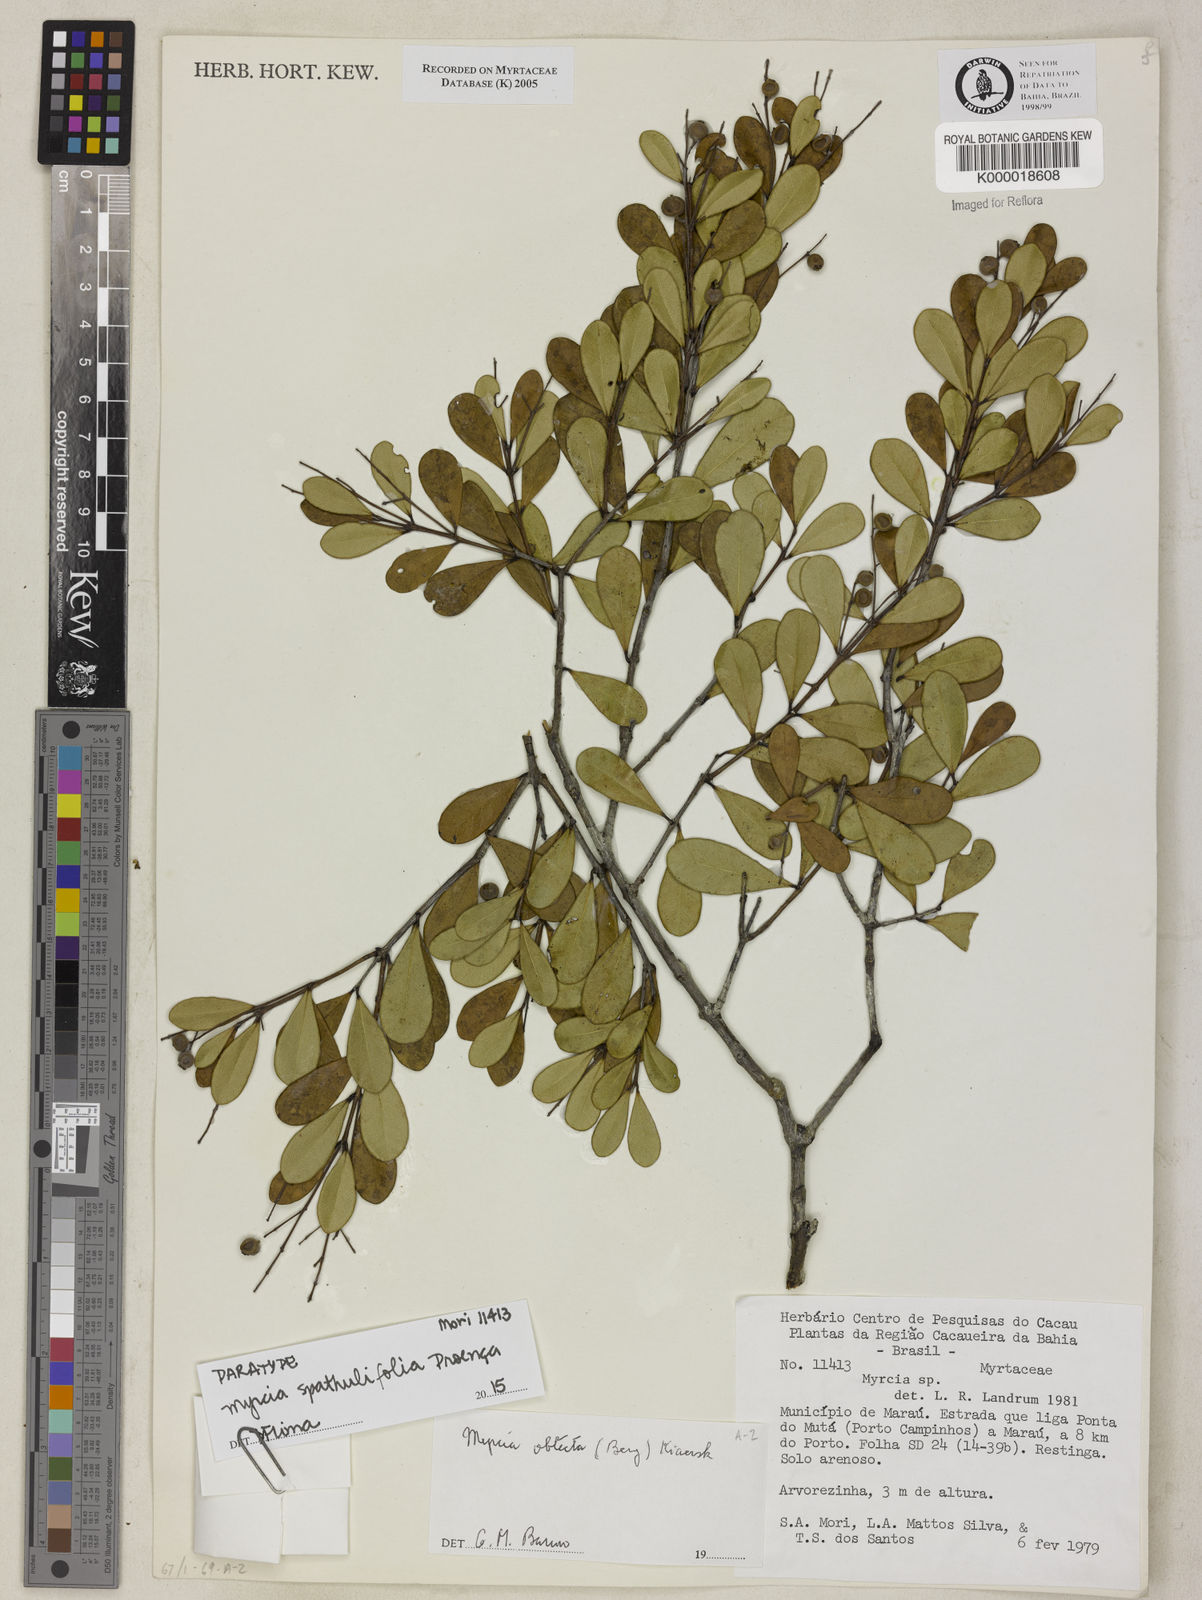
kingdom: Plantae
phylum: Tracheophyta
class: Magnoliopsida
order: Myrtales
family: Myrtaceae
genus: Myrcia
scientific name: Myrcia guianensis
